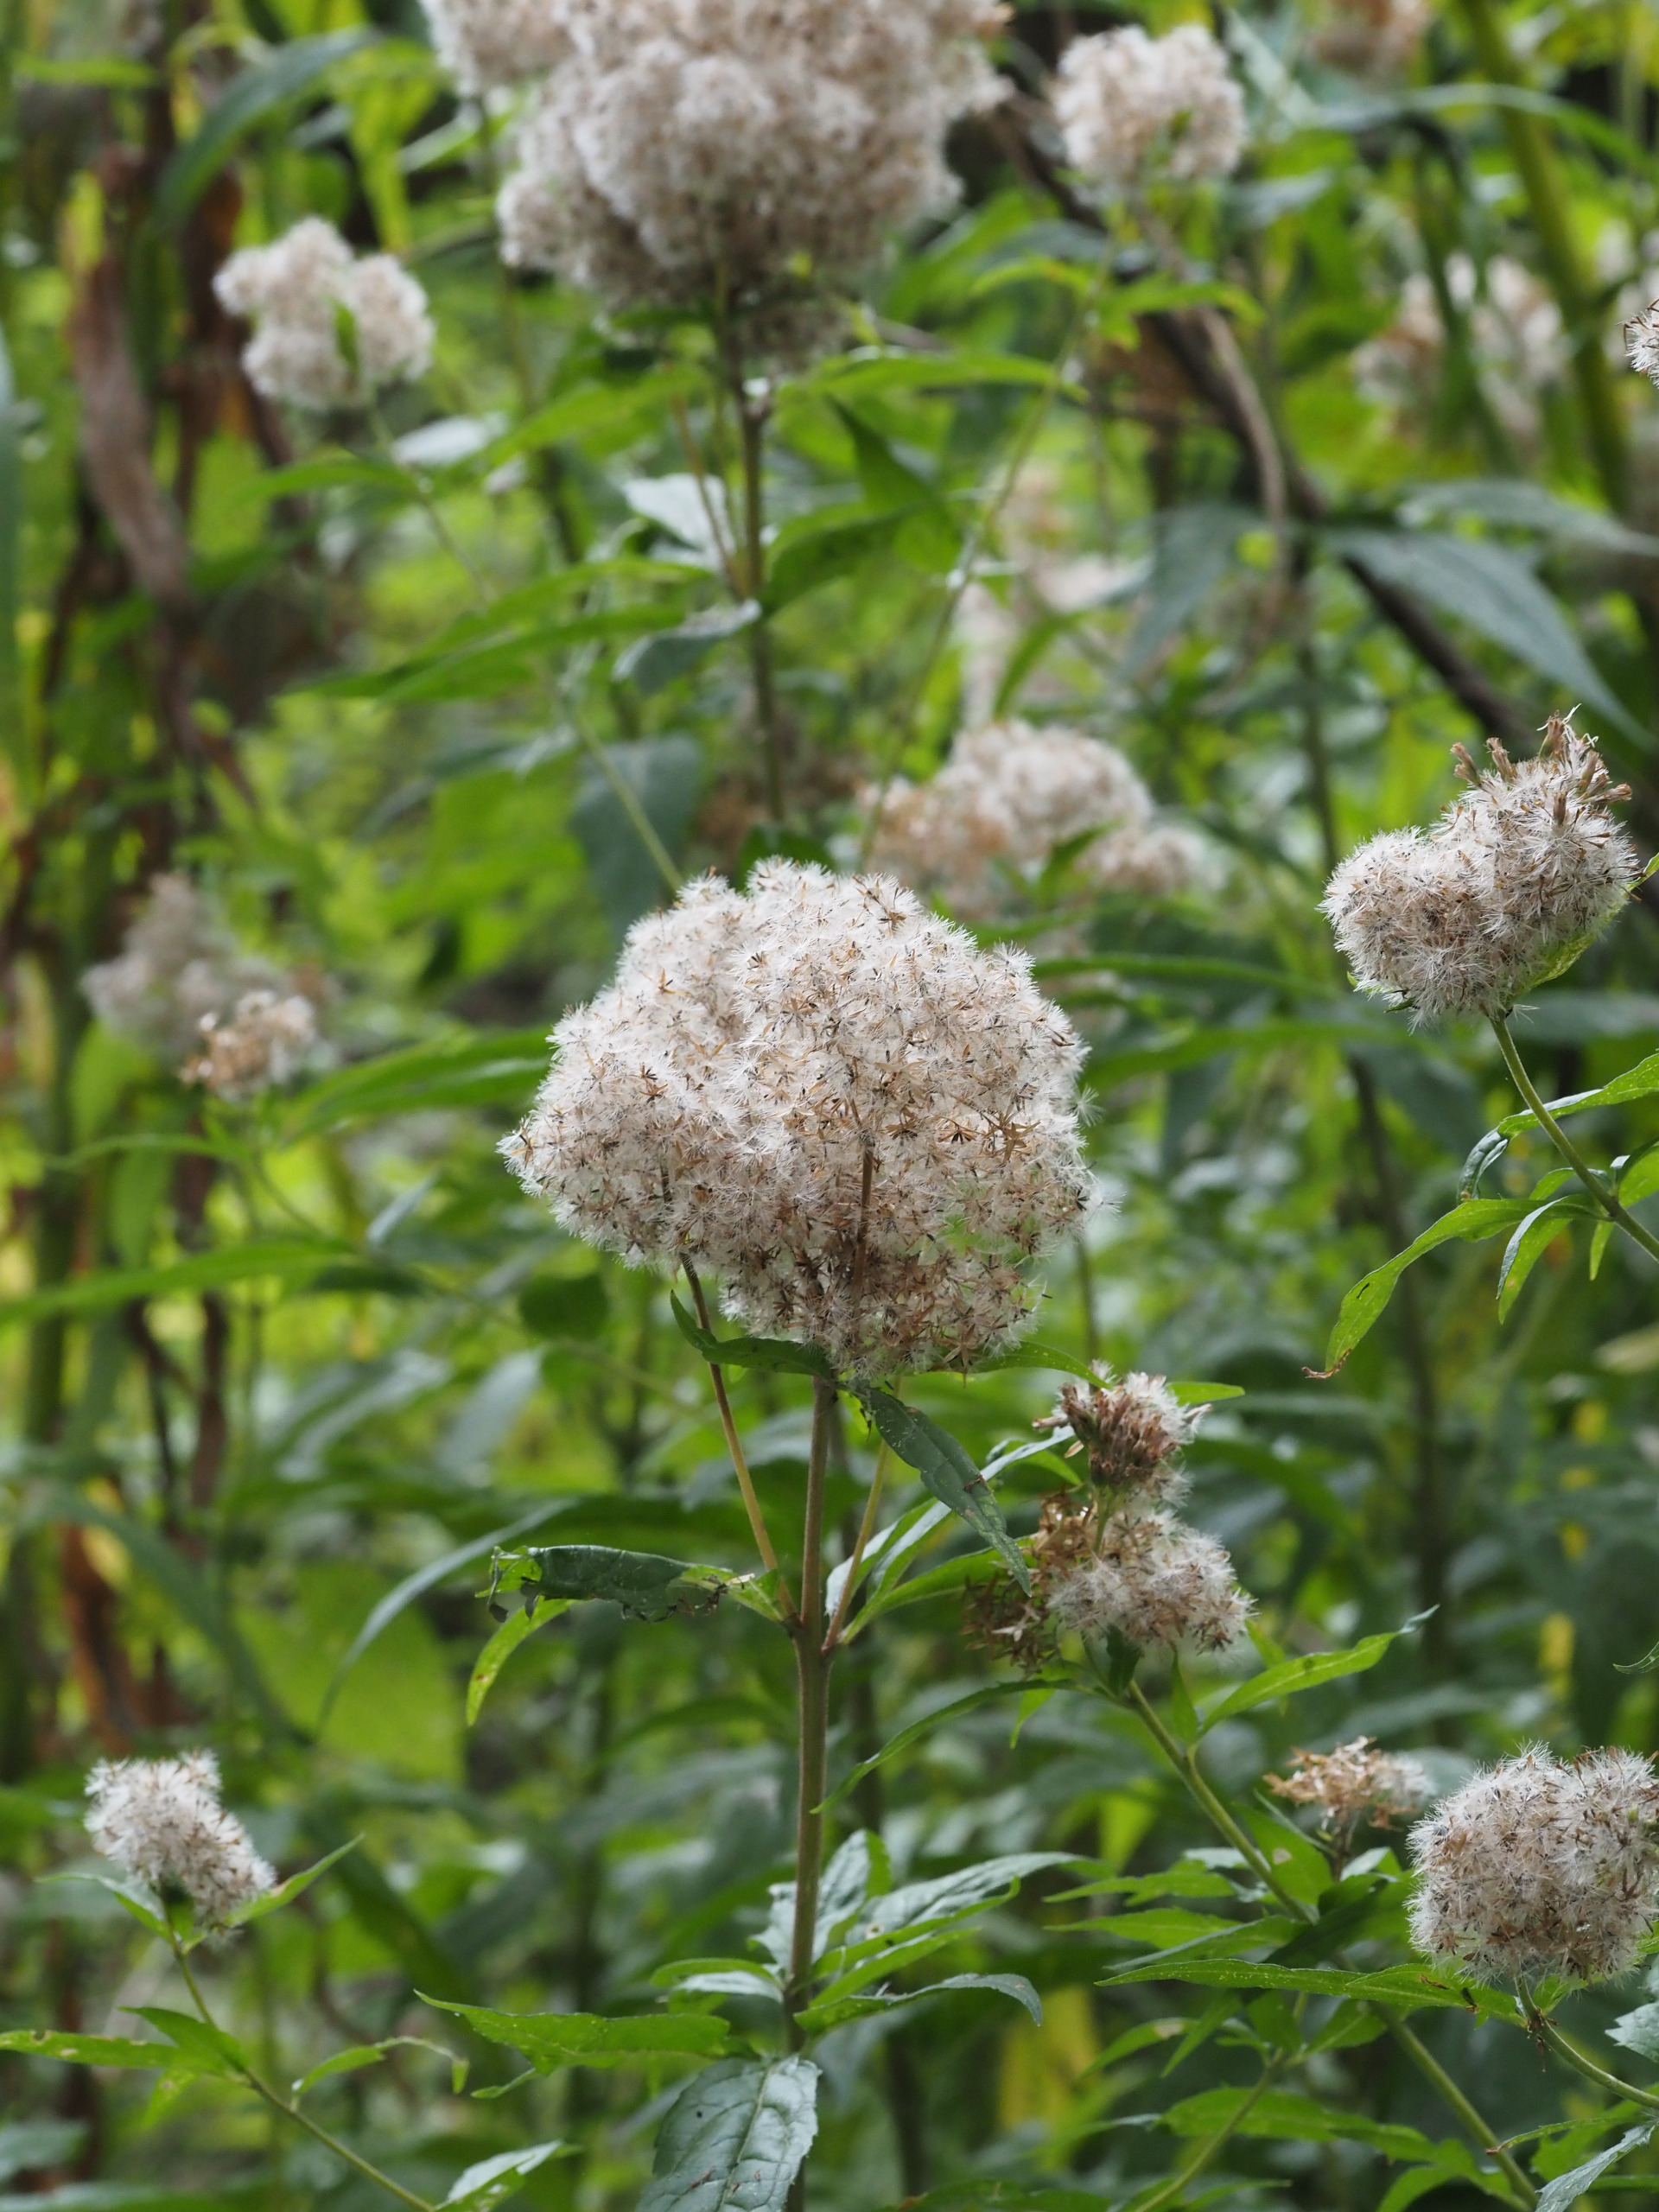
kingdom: Plantae
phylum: Tracheophyta
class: Magnoliopsida
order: Asterales
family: Asteraceae
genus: Eupatorium
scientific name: Eupatorium cannabinum
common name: Hjortetrøst
